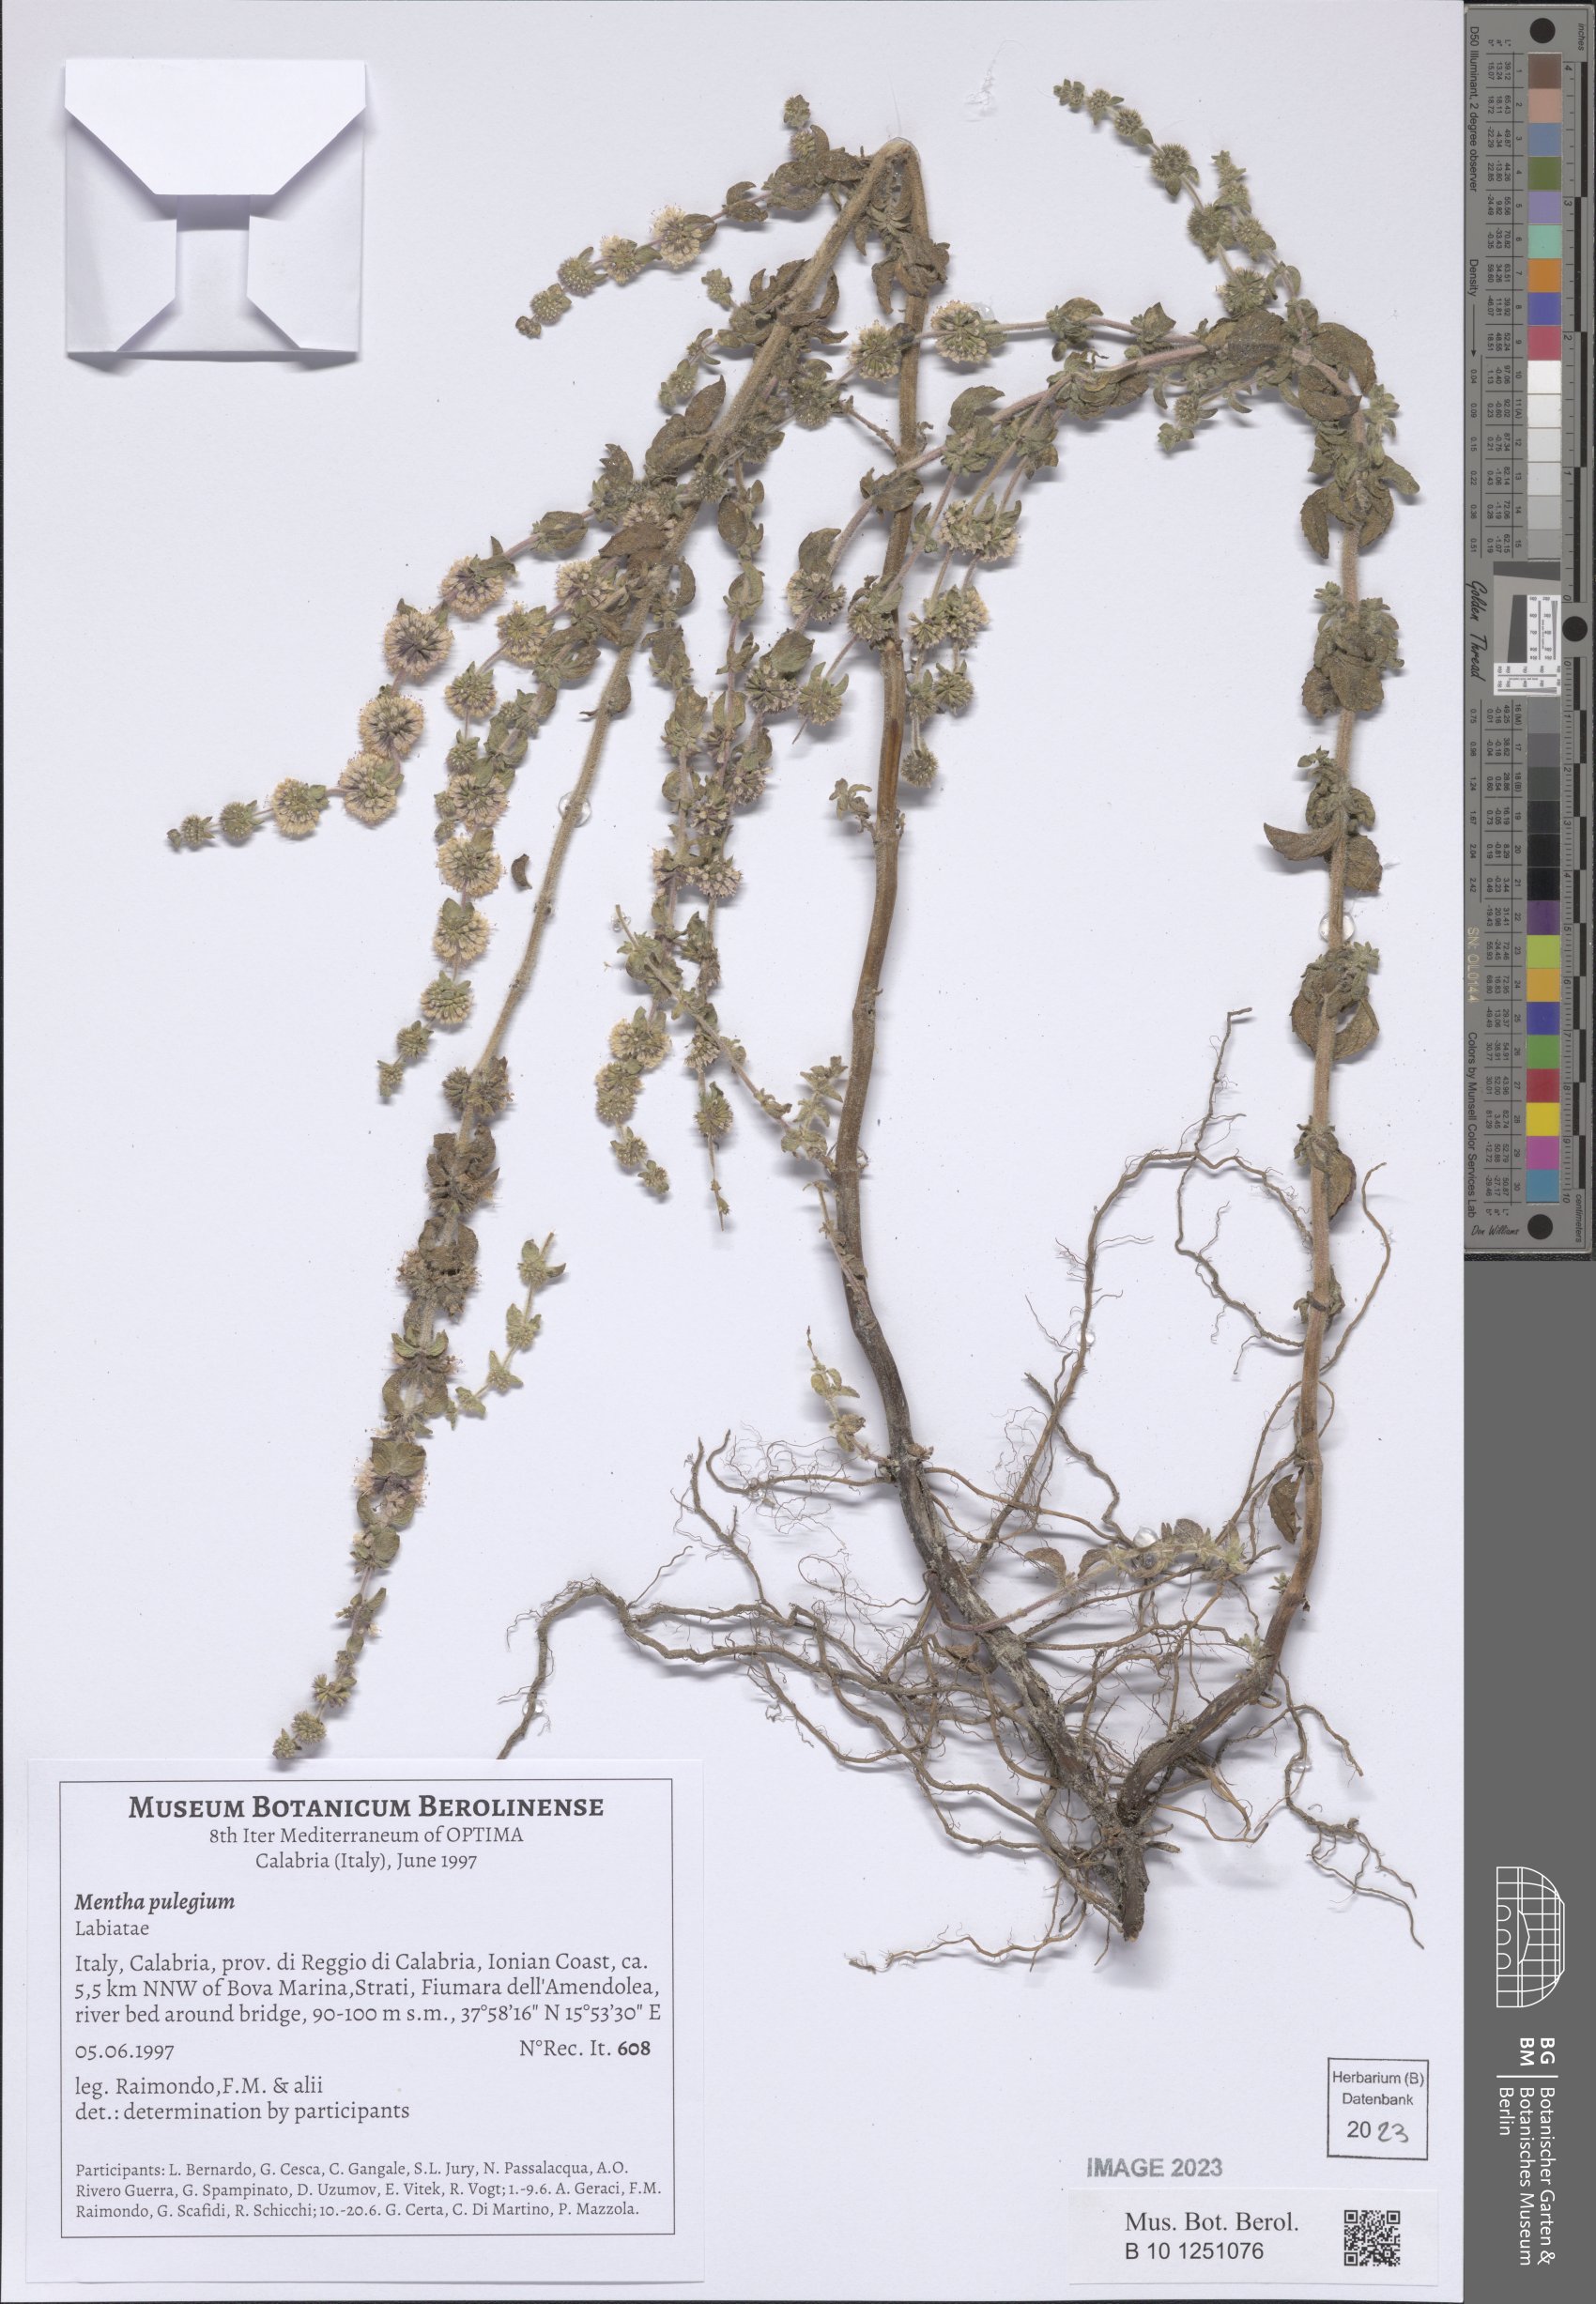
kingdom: Plantae
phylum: Tracheophyta
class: Magnoliopsida
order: Lamiales
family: Lamiaceae
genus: Mentha
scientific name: Mentha pulegium
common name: Pennyroyal
